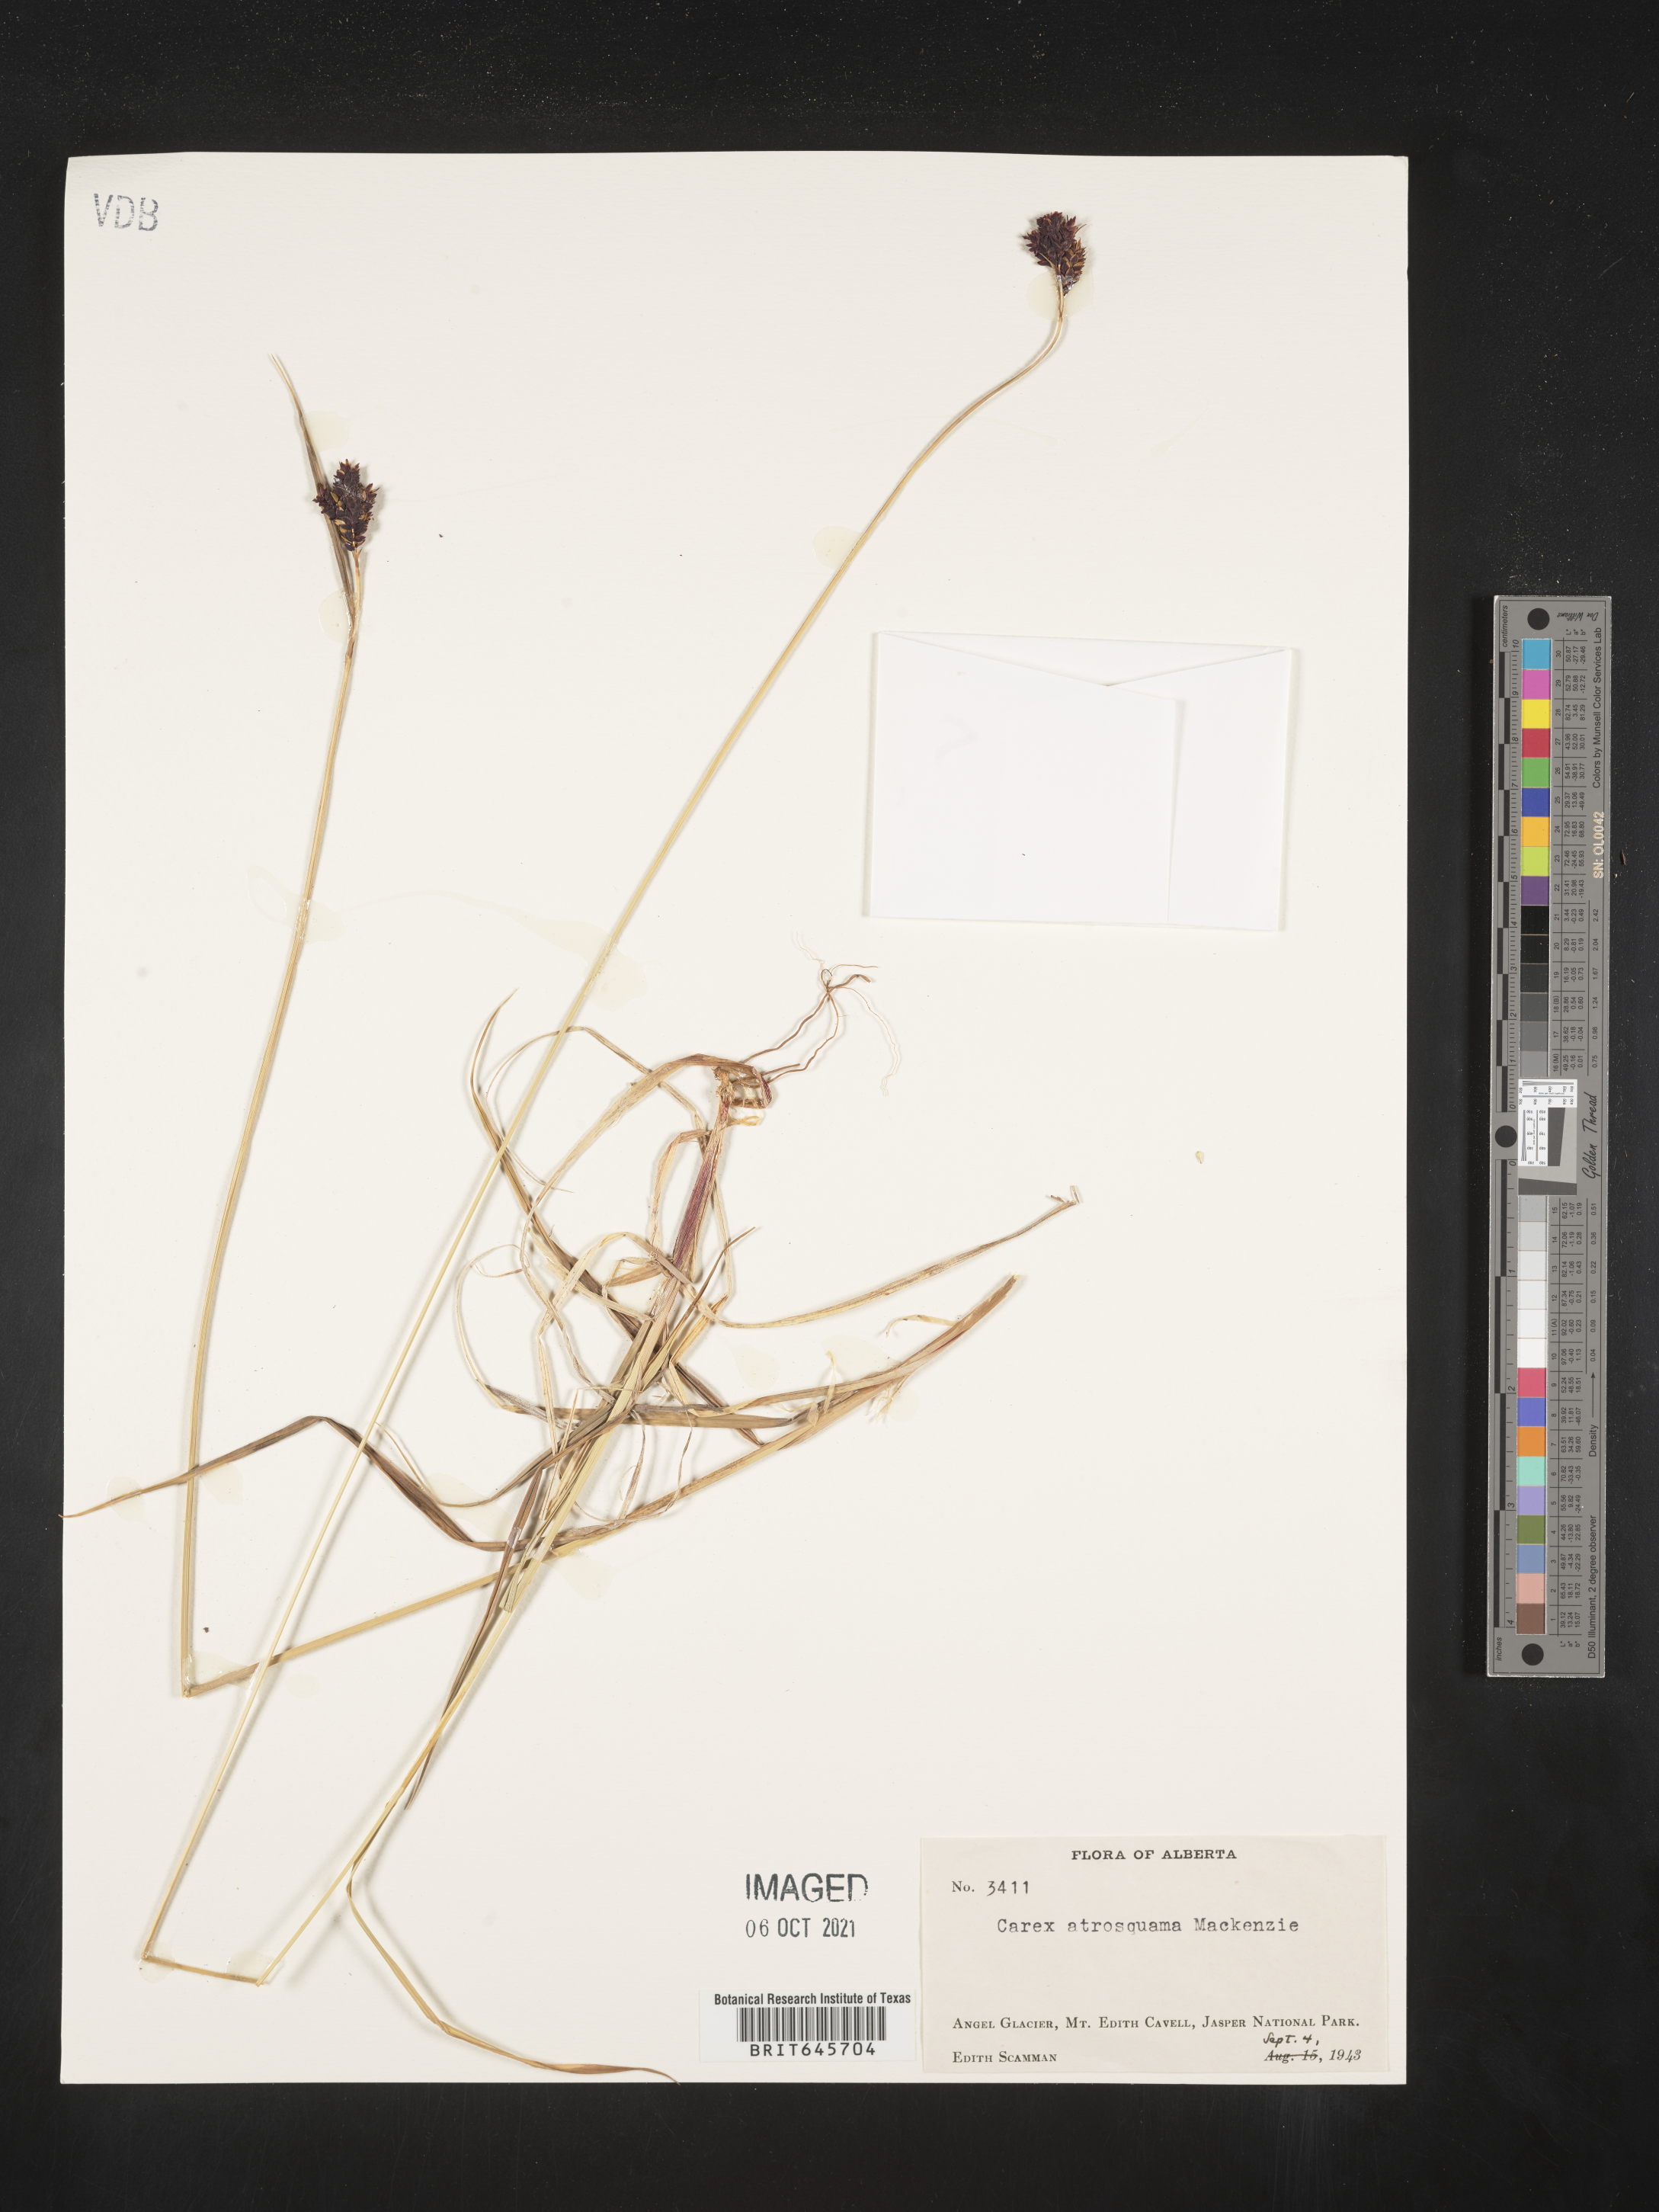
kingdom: Plantae
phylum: Tracheophyta
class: Liliopsida
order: Poales
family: Cyperaceae
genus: Carex
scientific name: Carex atrosquama
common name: Black-scale sedge
